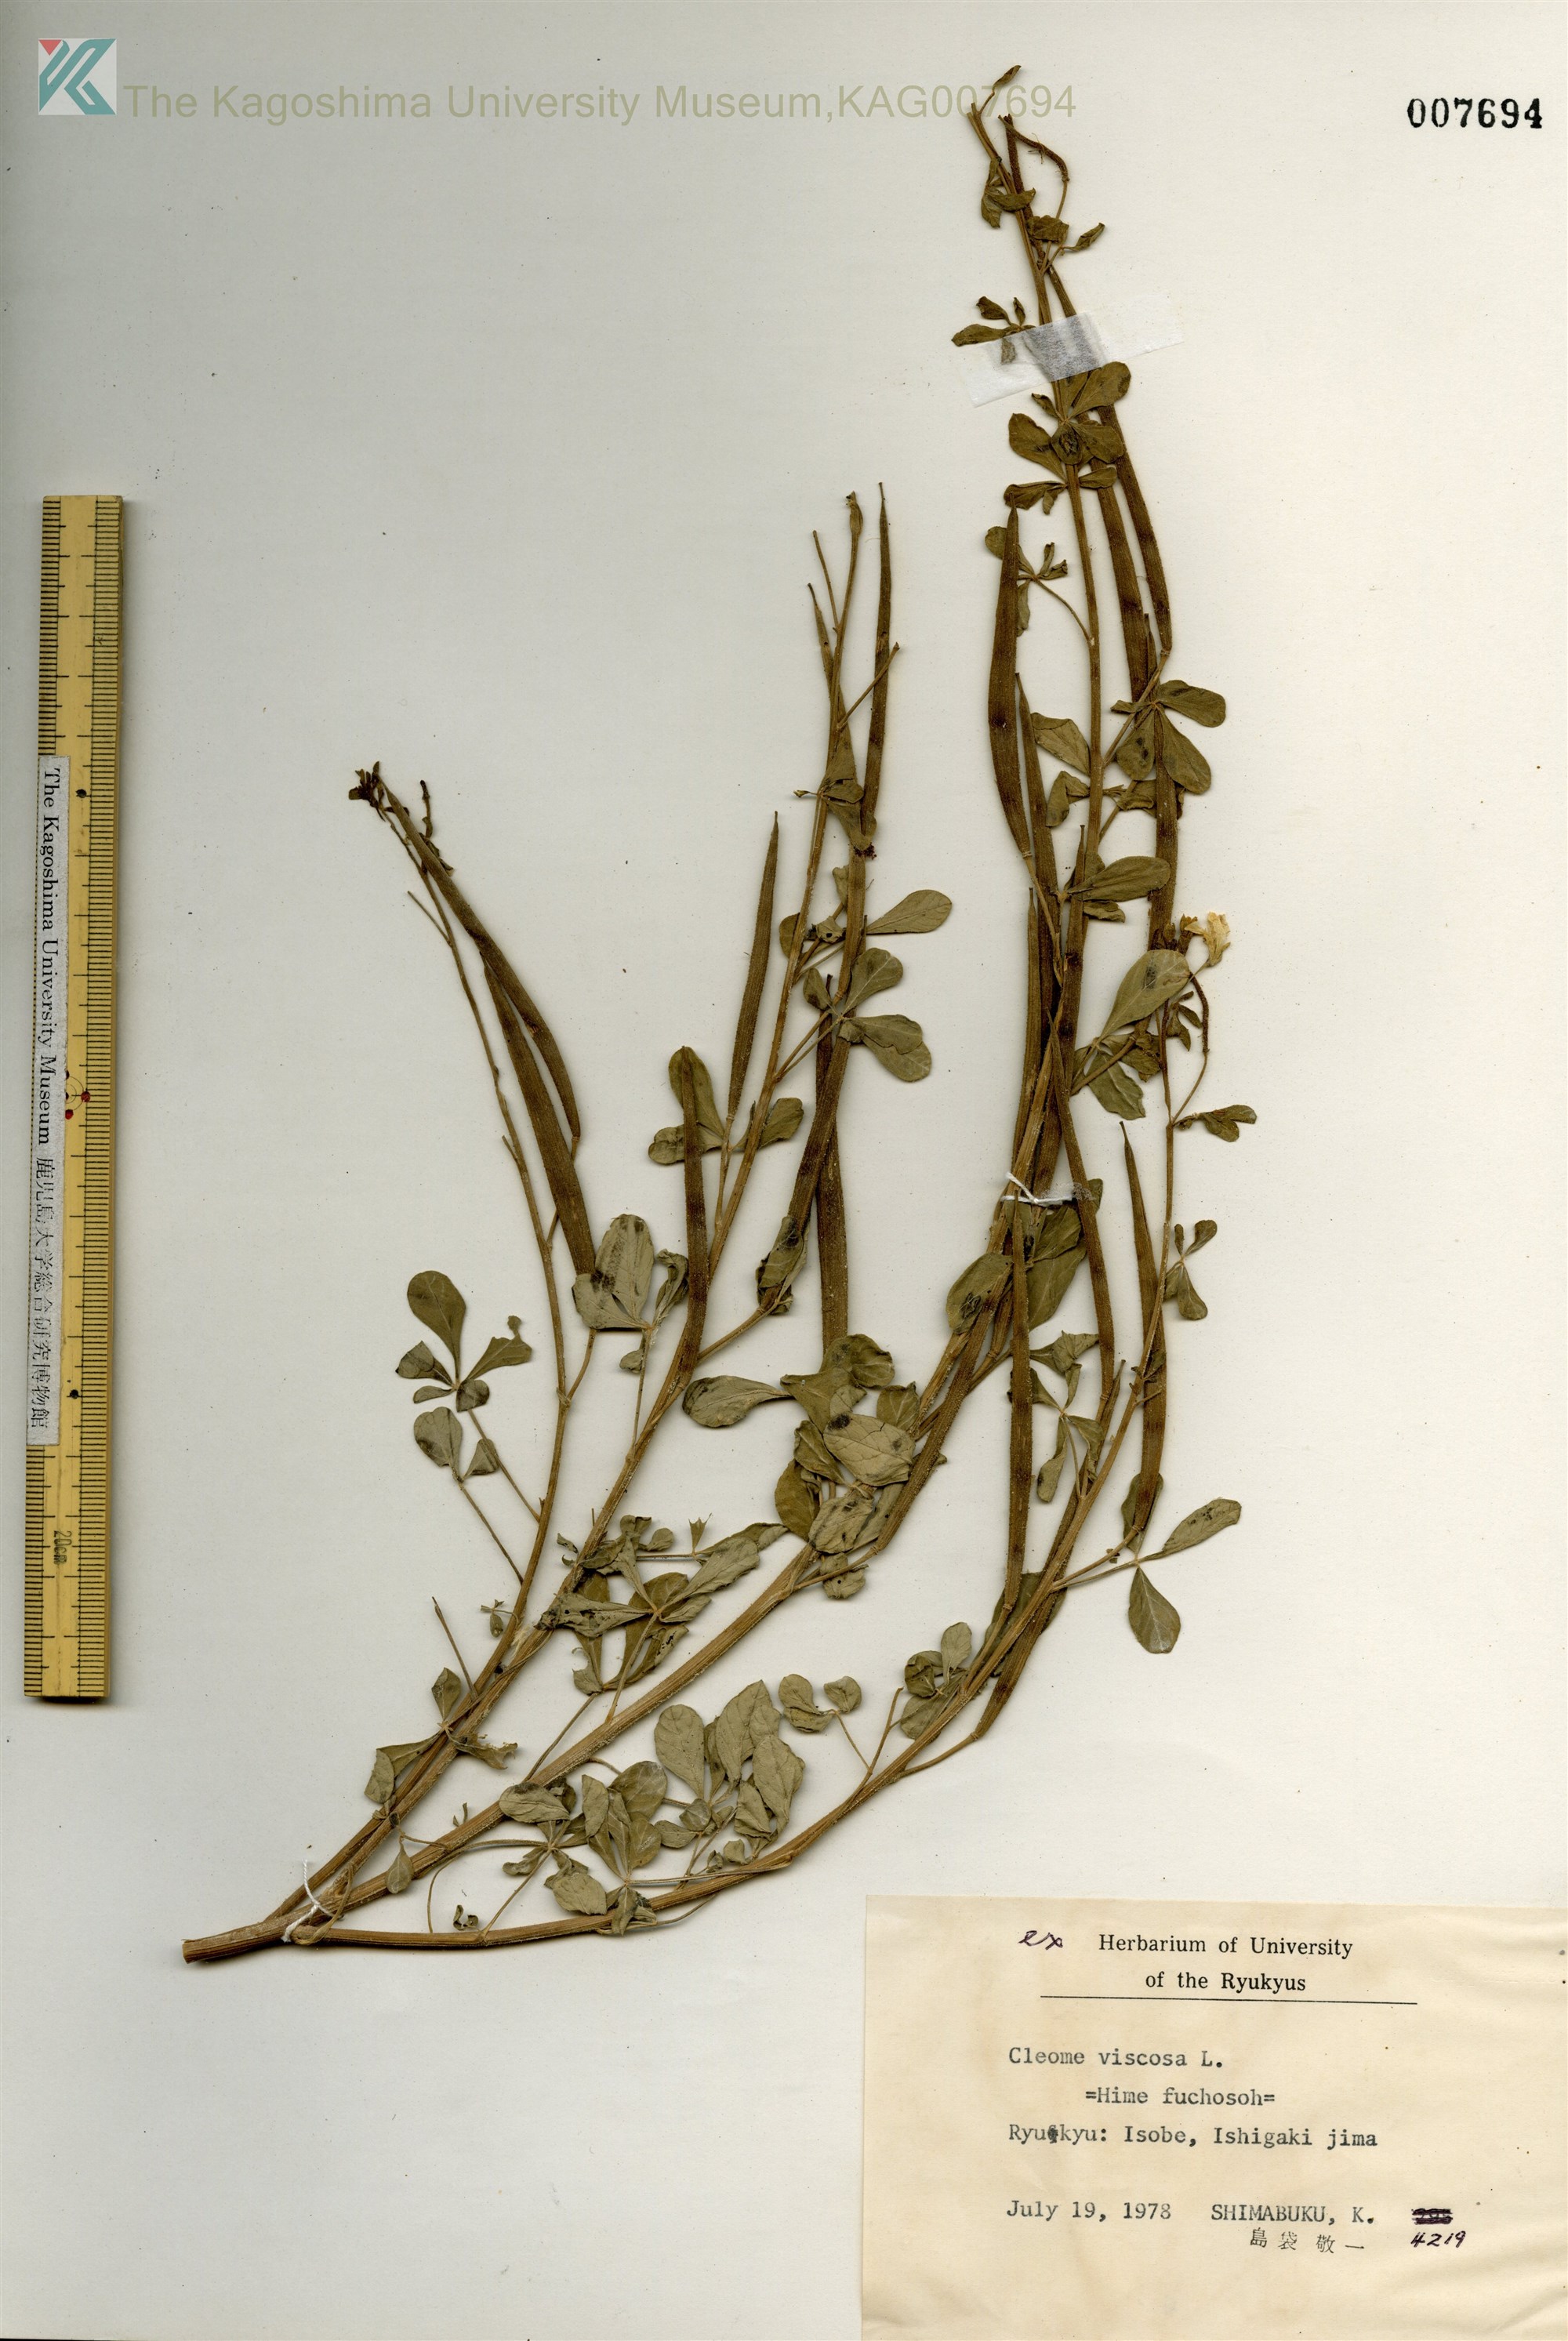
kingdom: Plantae
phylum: Tracheophyta
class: Magnoliopsida
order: Brassicales
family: Cleomaceae
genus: Arivela
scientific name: Arivela viscosa
